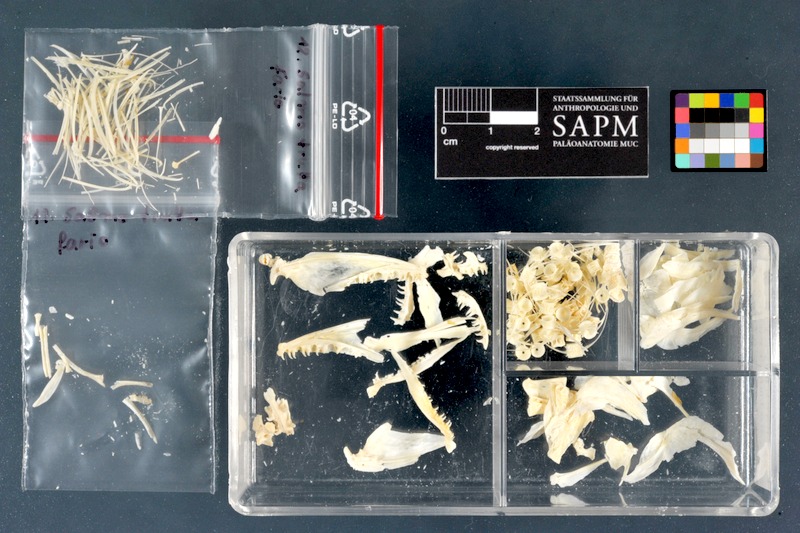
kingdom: Animalia
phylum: Chordata
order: Salmoniformes
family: Salmonidae
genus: Salmo
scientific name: Salmo trutta
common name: Brown trout
